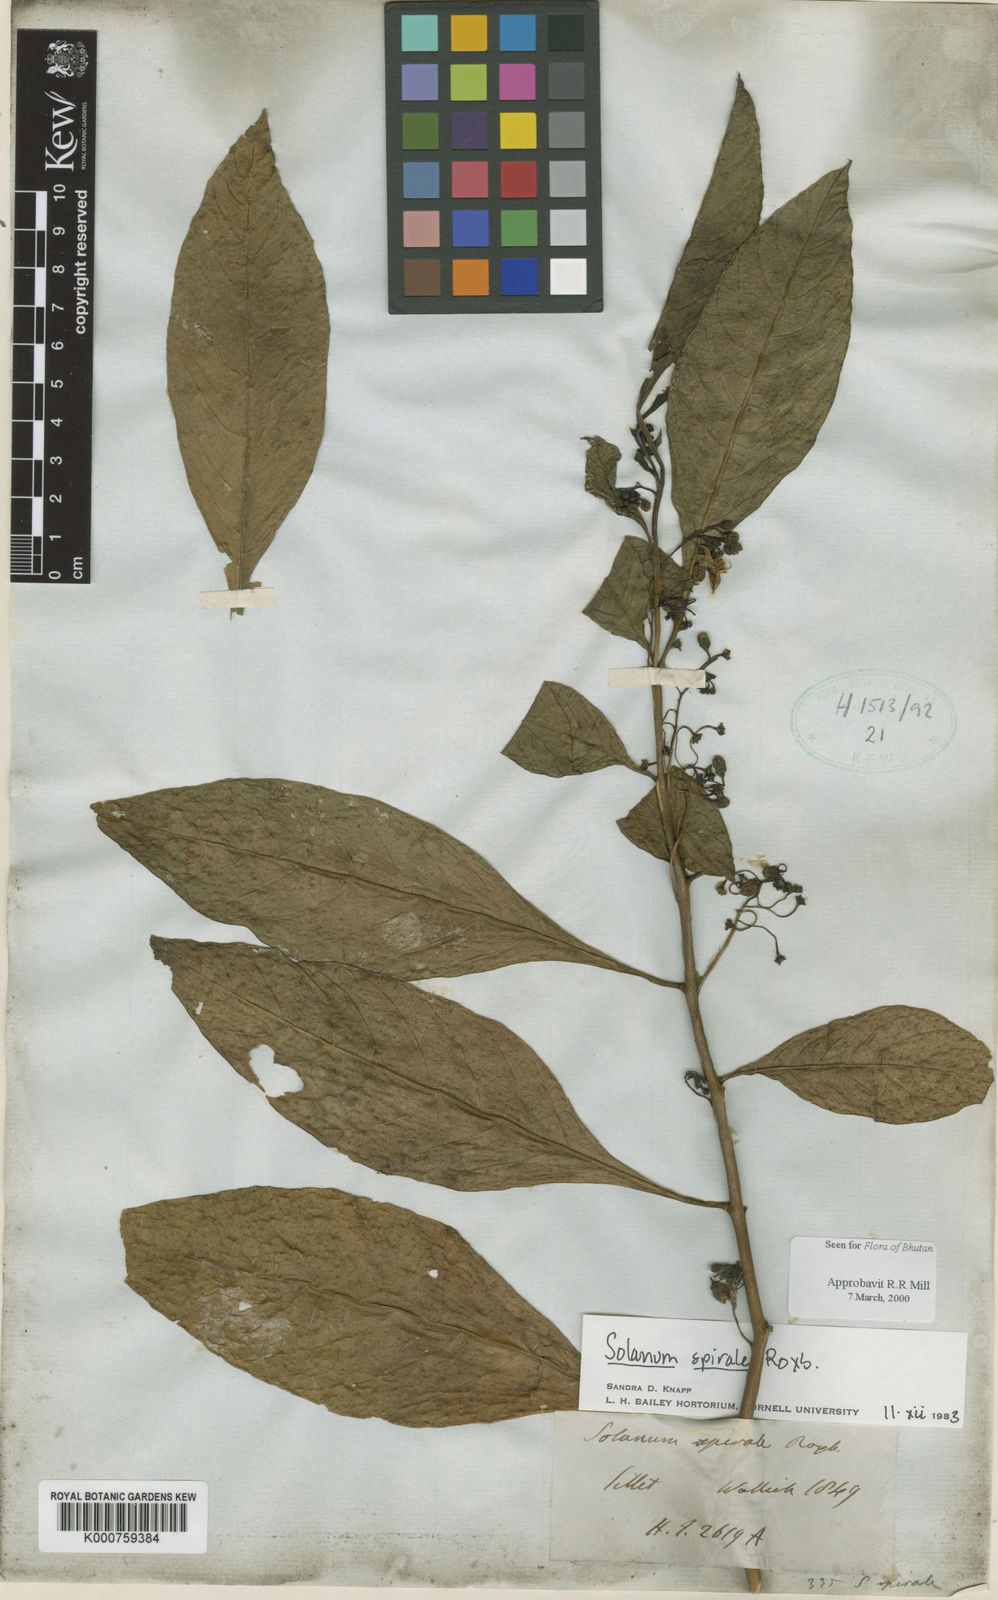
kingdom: Plantae
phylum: Tracheophyta
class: Magnoliopsida
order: Solanales
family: Solanaceae
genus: Solanum
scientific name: Solanum spirale
